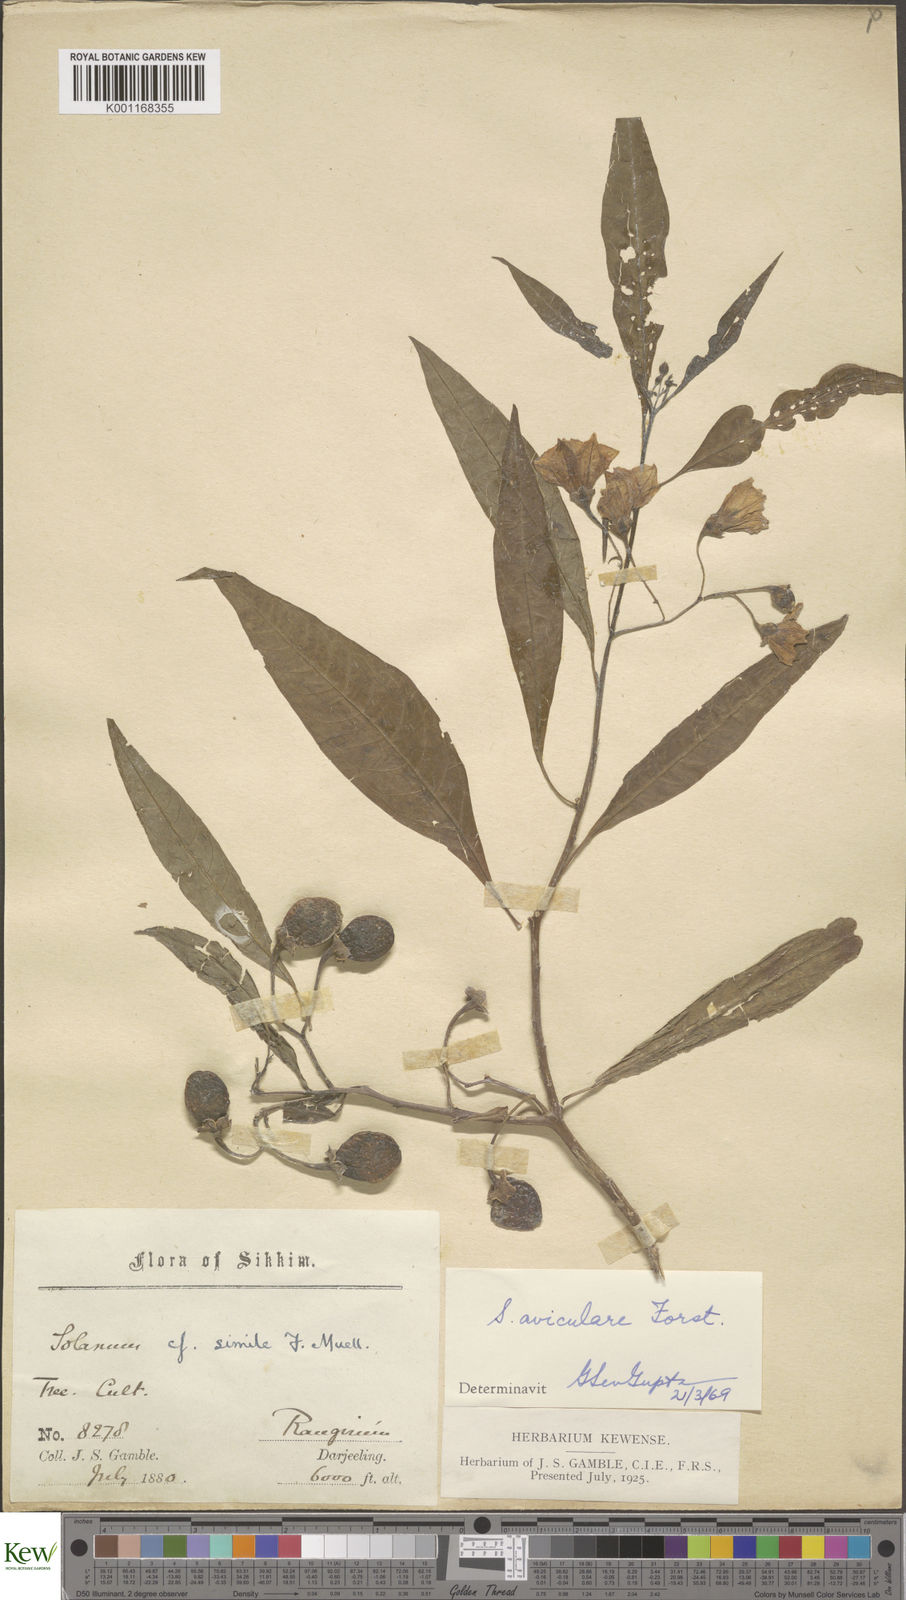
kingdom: Plantae
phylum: Tracheophyta
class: Magnoliopsida
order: Solanales
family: Solanaceae
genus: Solanum
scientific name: Solanum aviculare
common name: New zealand nightshade
